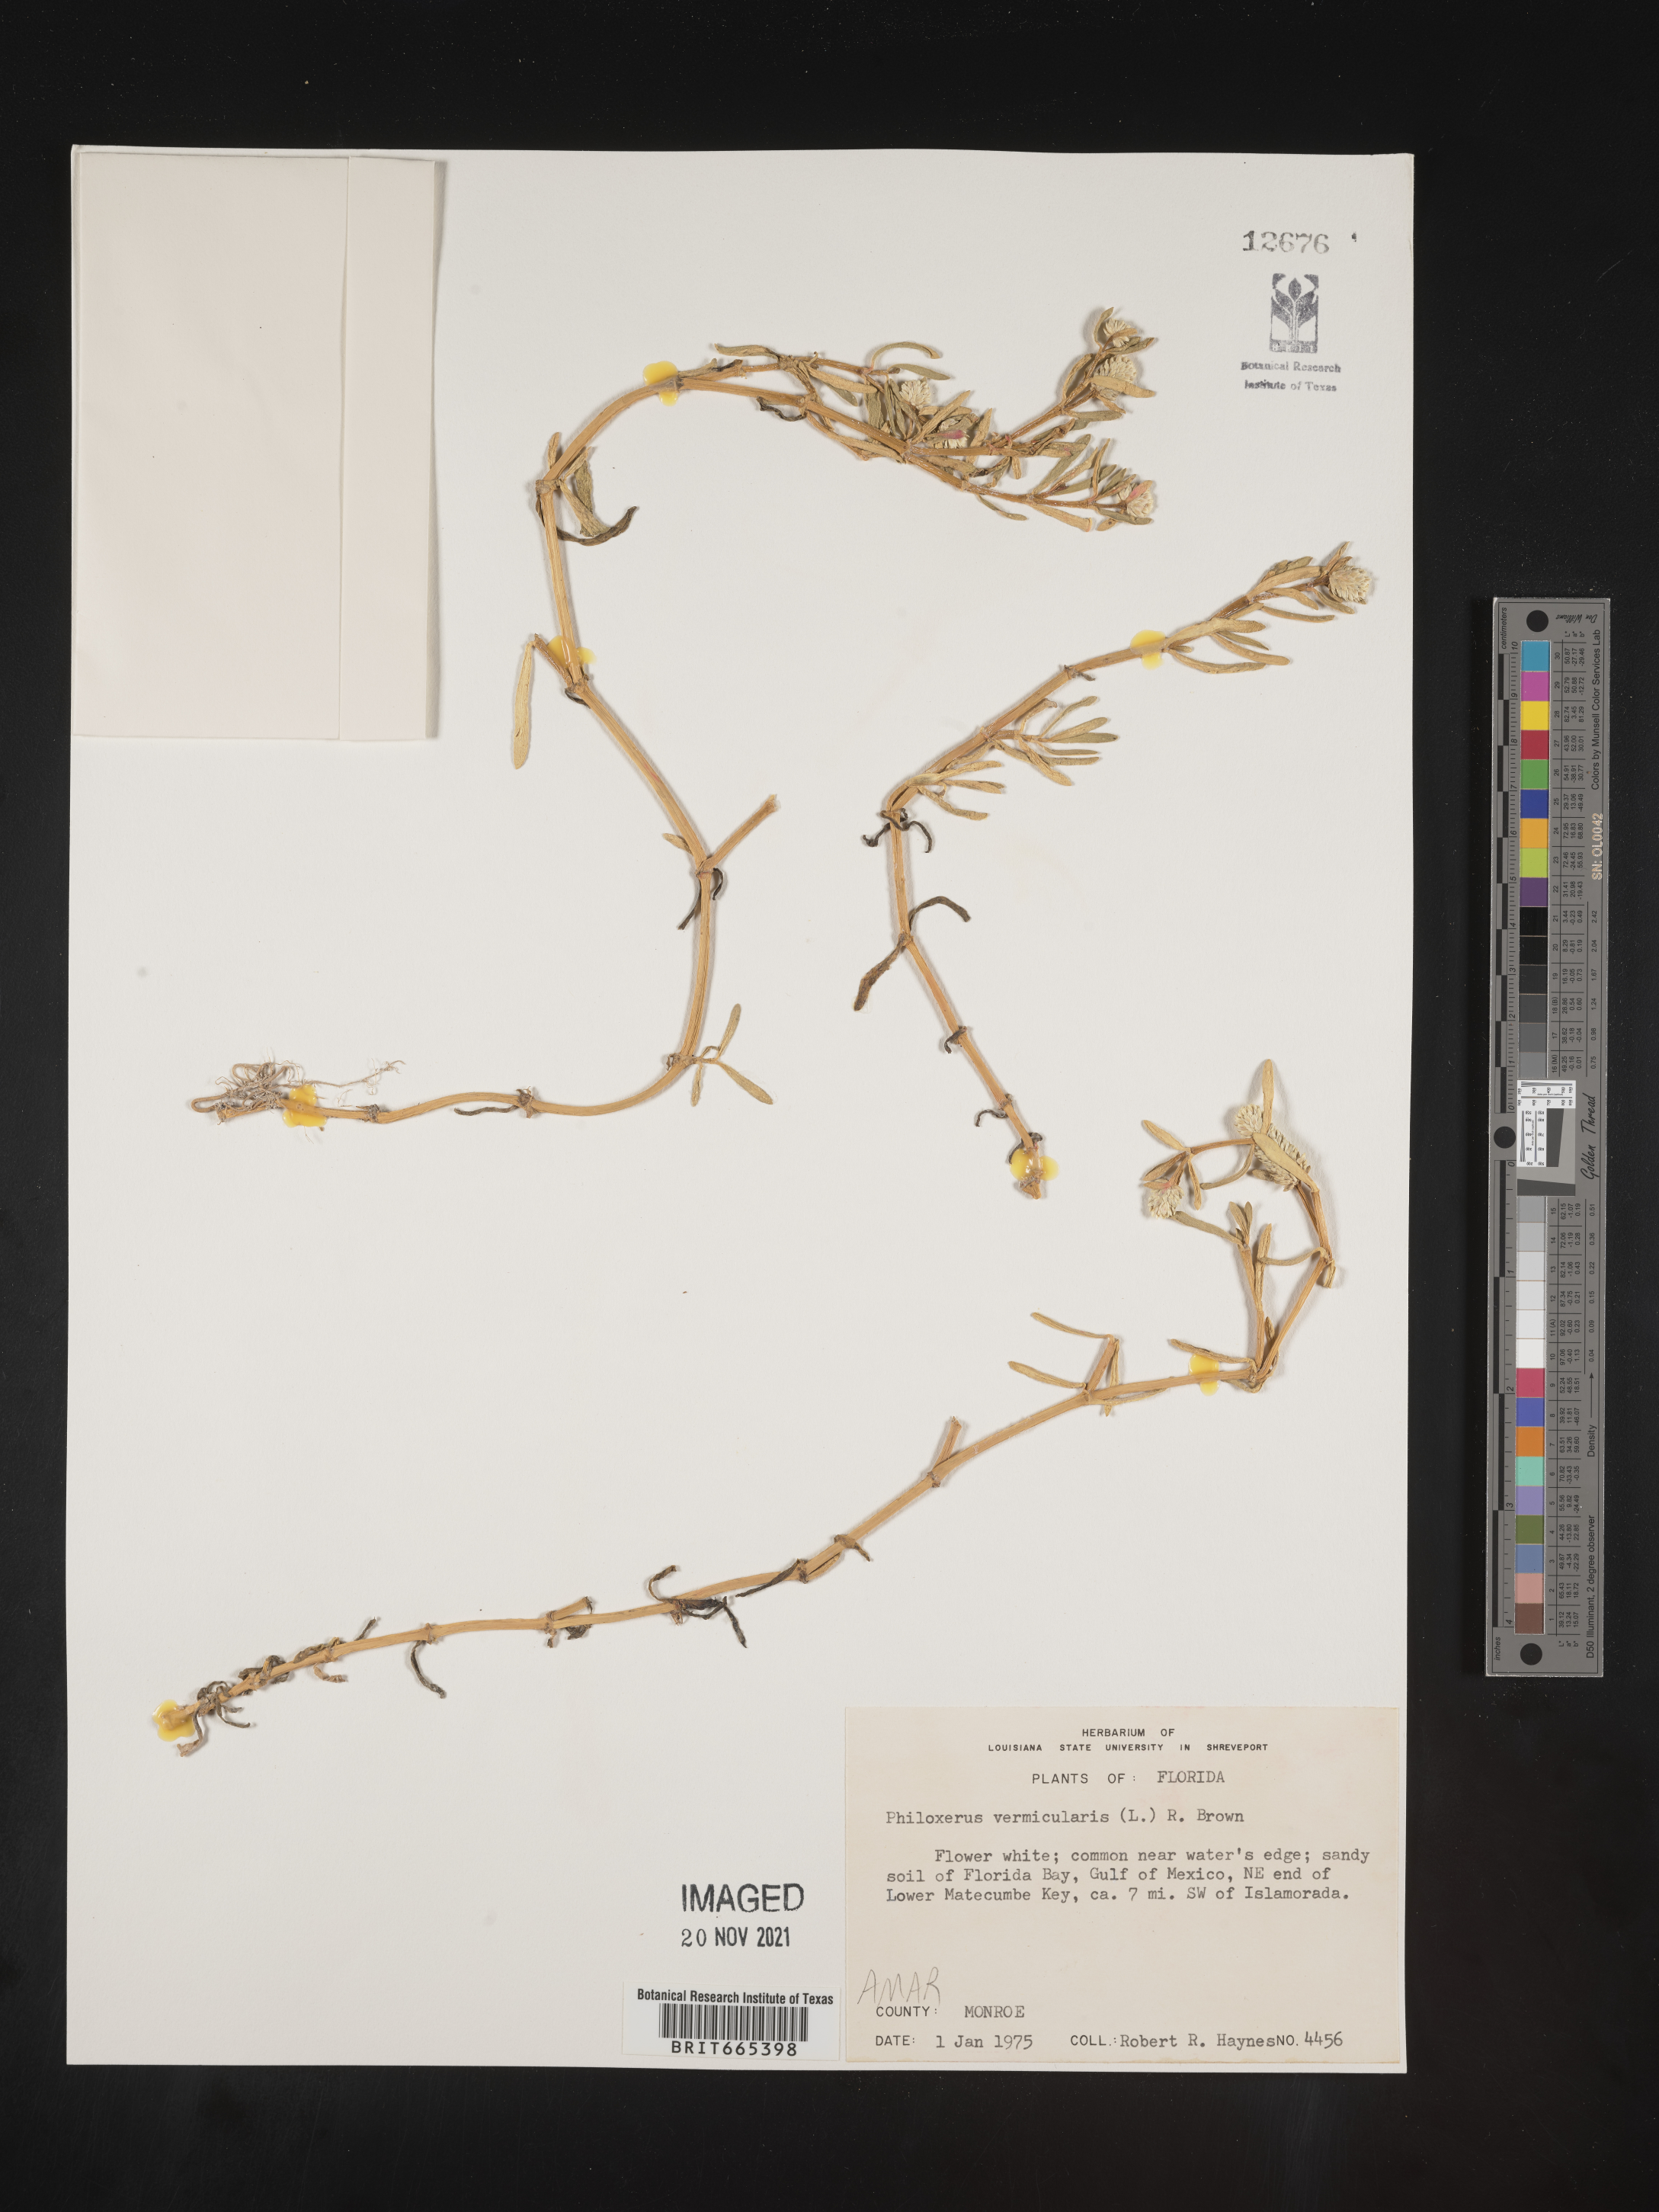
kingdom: Plantae
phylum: Tracheophyta
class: Magnoliopsida
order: Caryophyllales
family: Amaranthaceae
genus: Gomphrena
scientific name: Gomphrena
